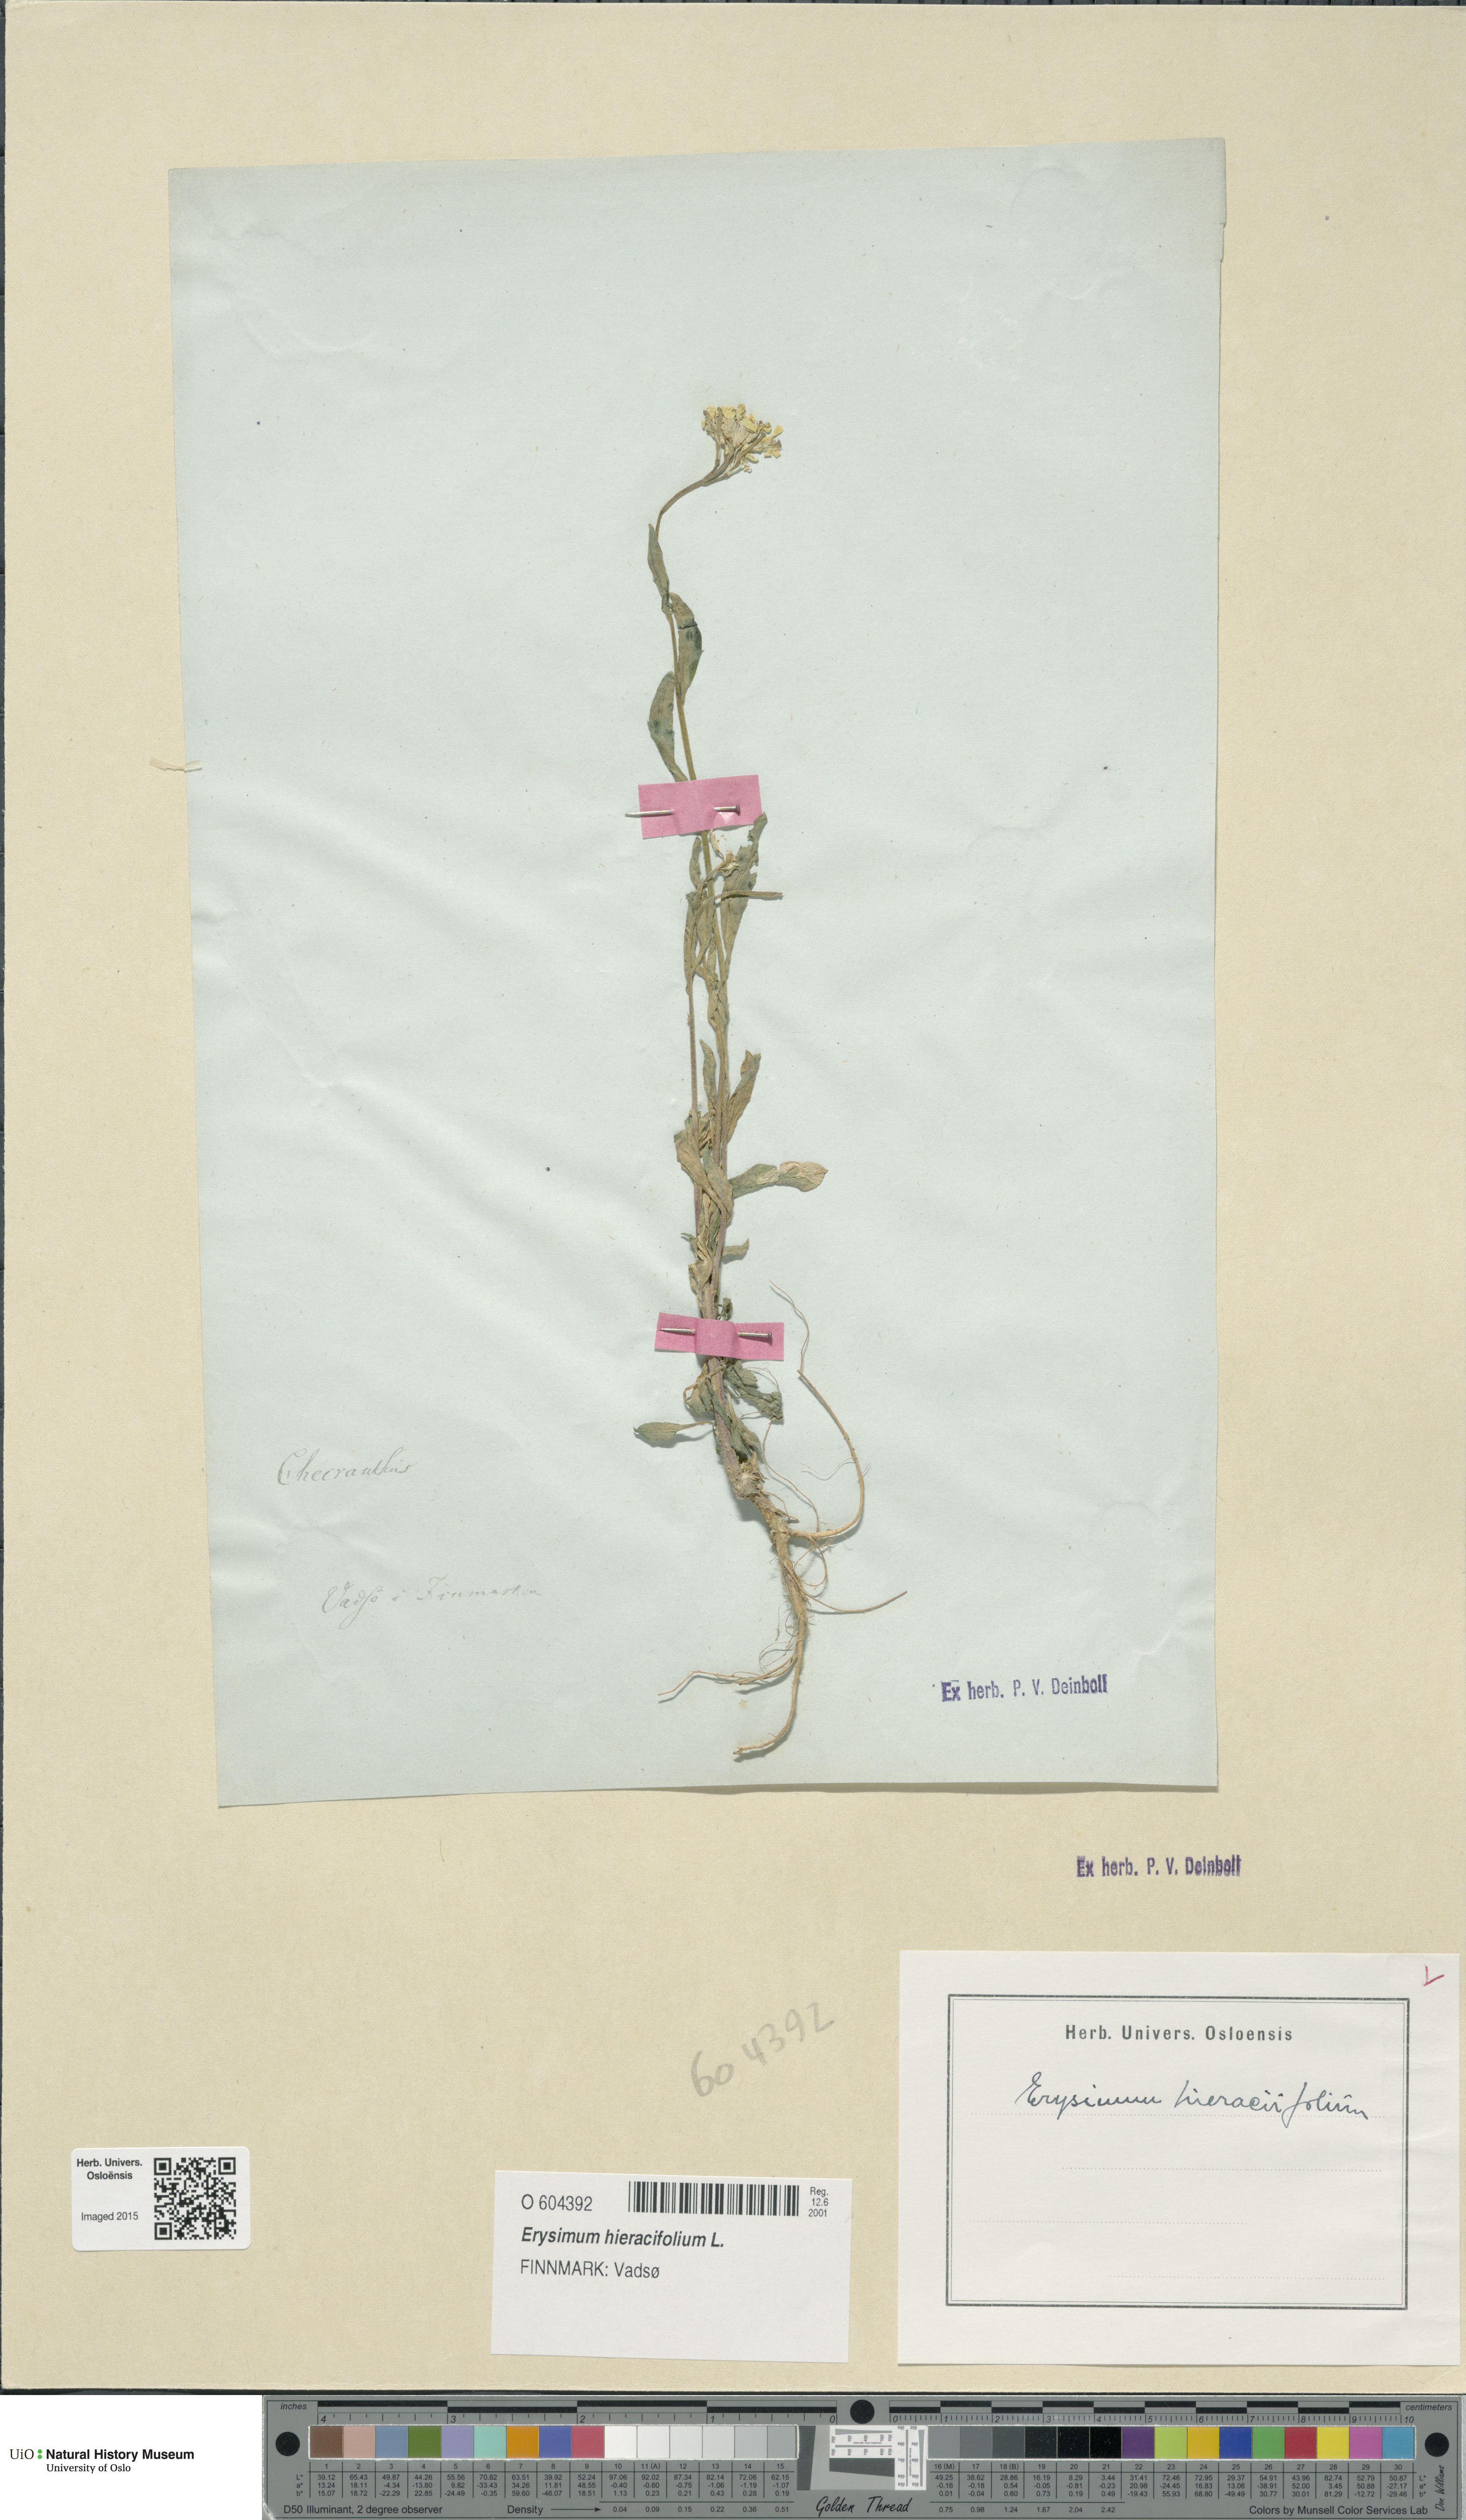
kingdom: Plantae
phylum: Tracheophyta
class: Magnoliopsida
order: Brassicales
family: Brassicaceae
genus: Erysimum
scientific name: Erysimum virgatum
